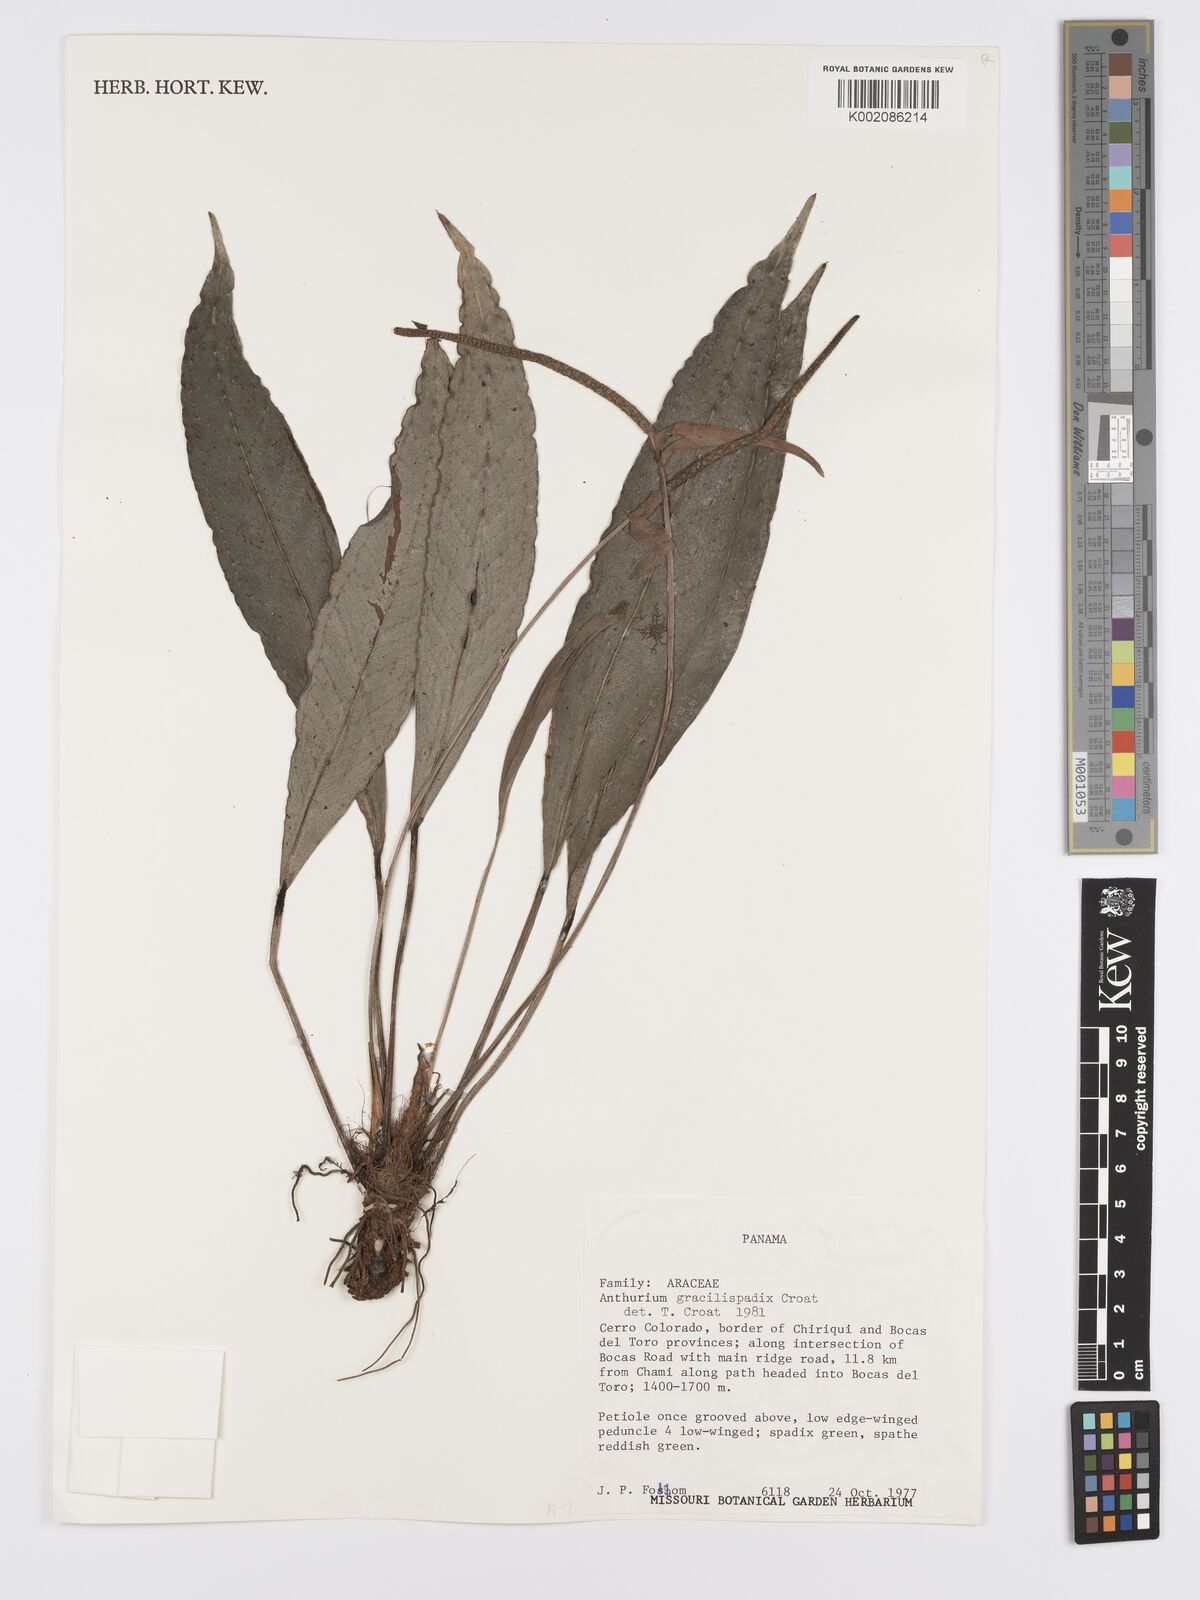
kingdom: Plantae
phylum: Tracheophyta
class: Liliopsida
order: Alismatales
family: Araceae
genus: Anthurium
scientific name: Anthurium gracilispadix
